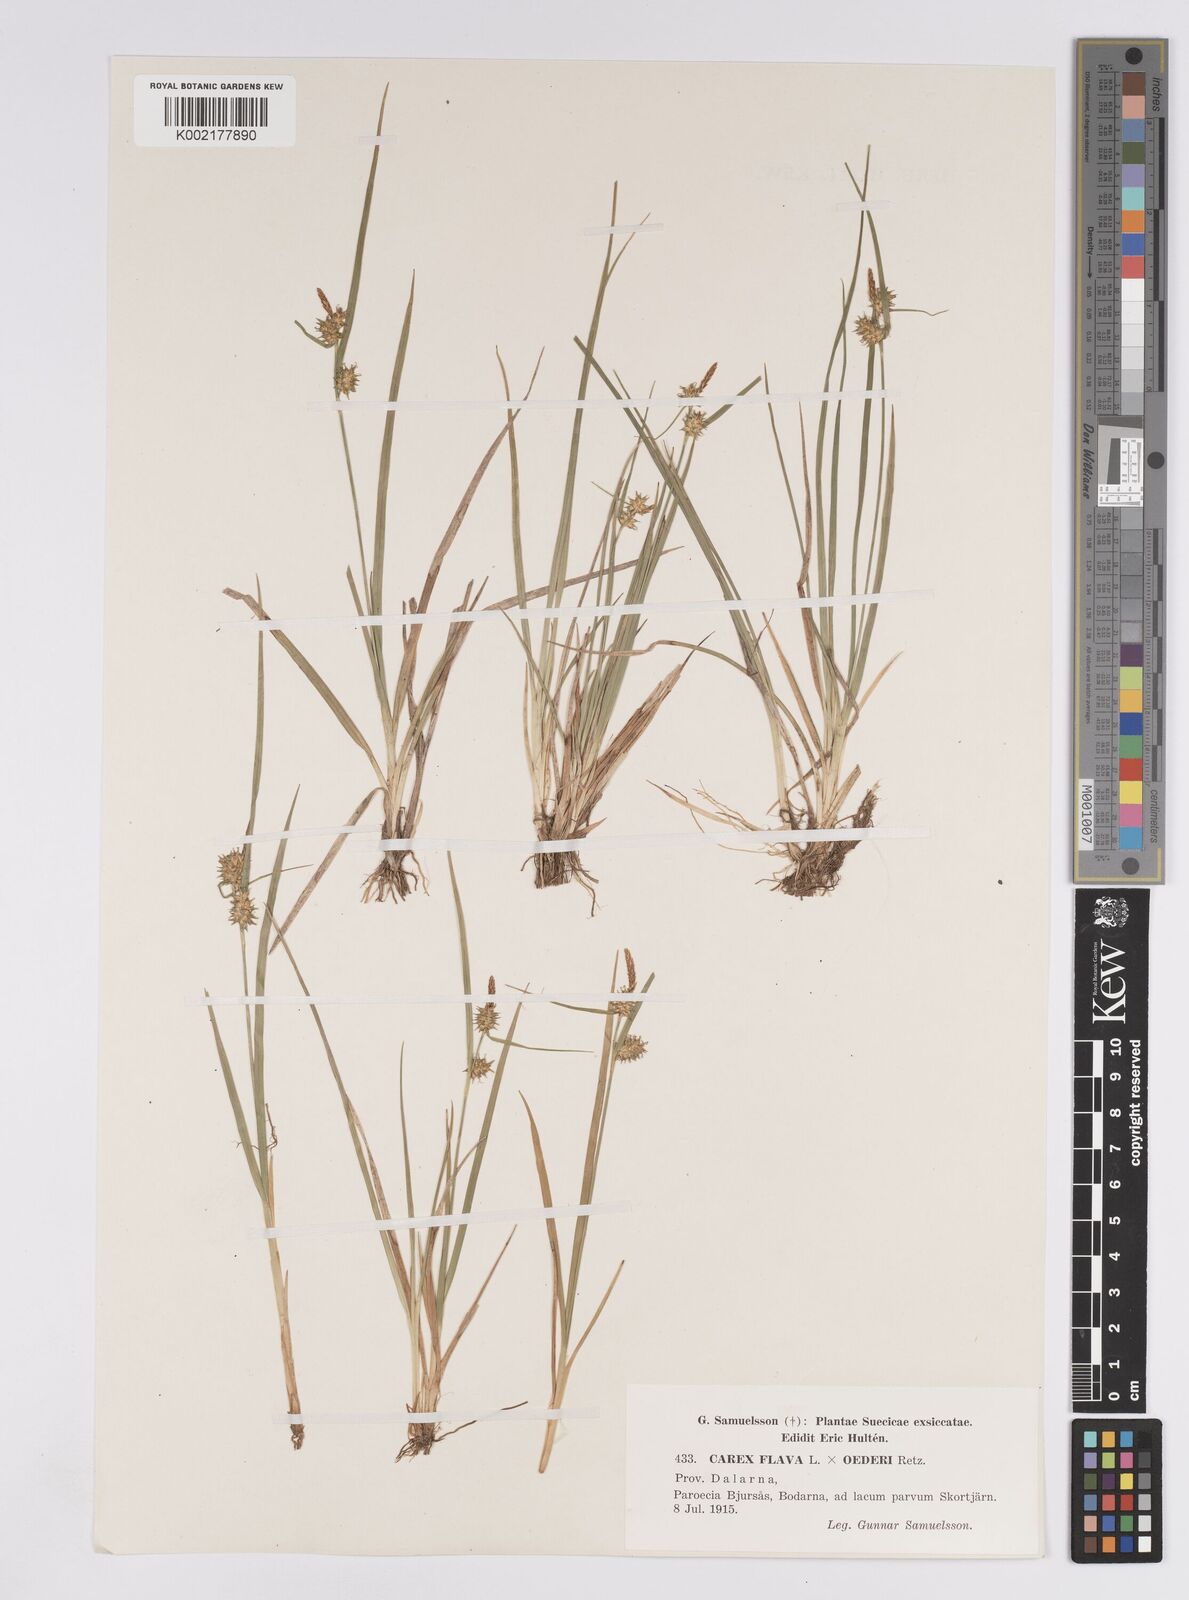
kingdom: Plantae
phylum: Tracheophyta
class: Liliopsida
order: Poales
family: Cyperaceae
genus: Carex
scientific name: Carex flava
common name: Large yellow-sedge
